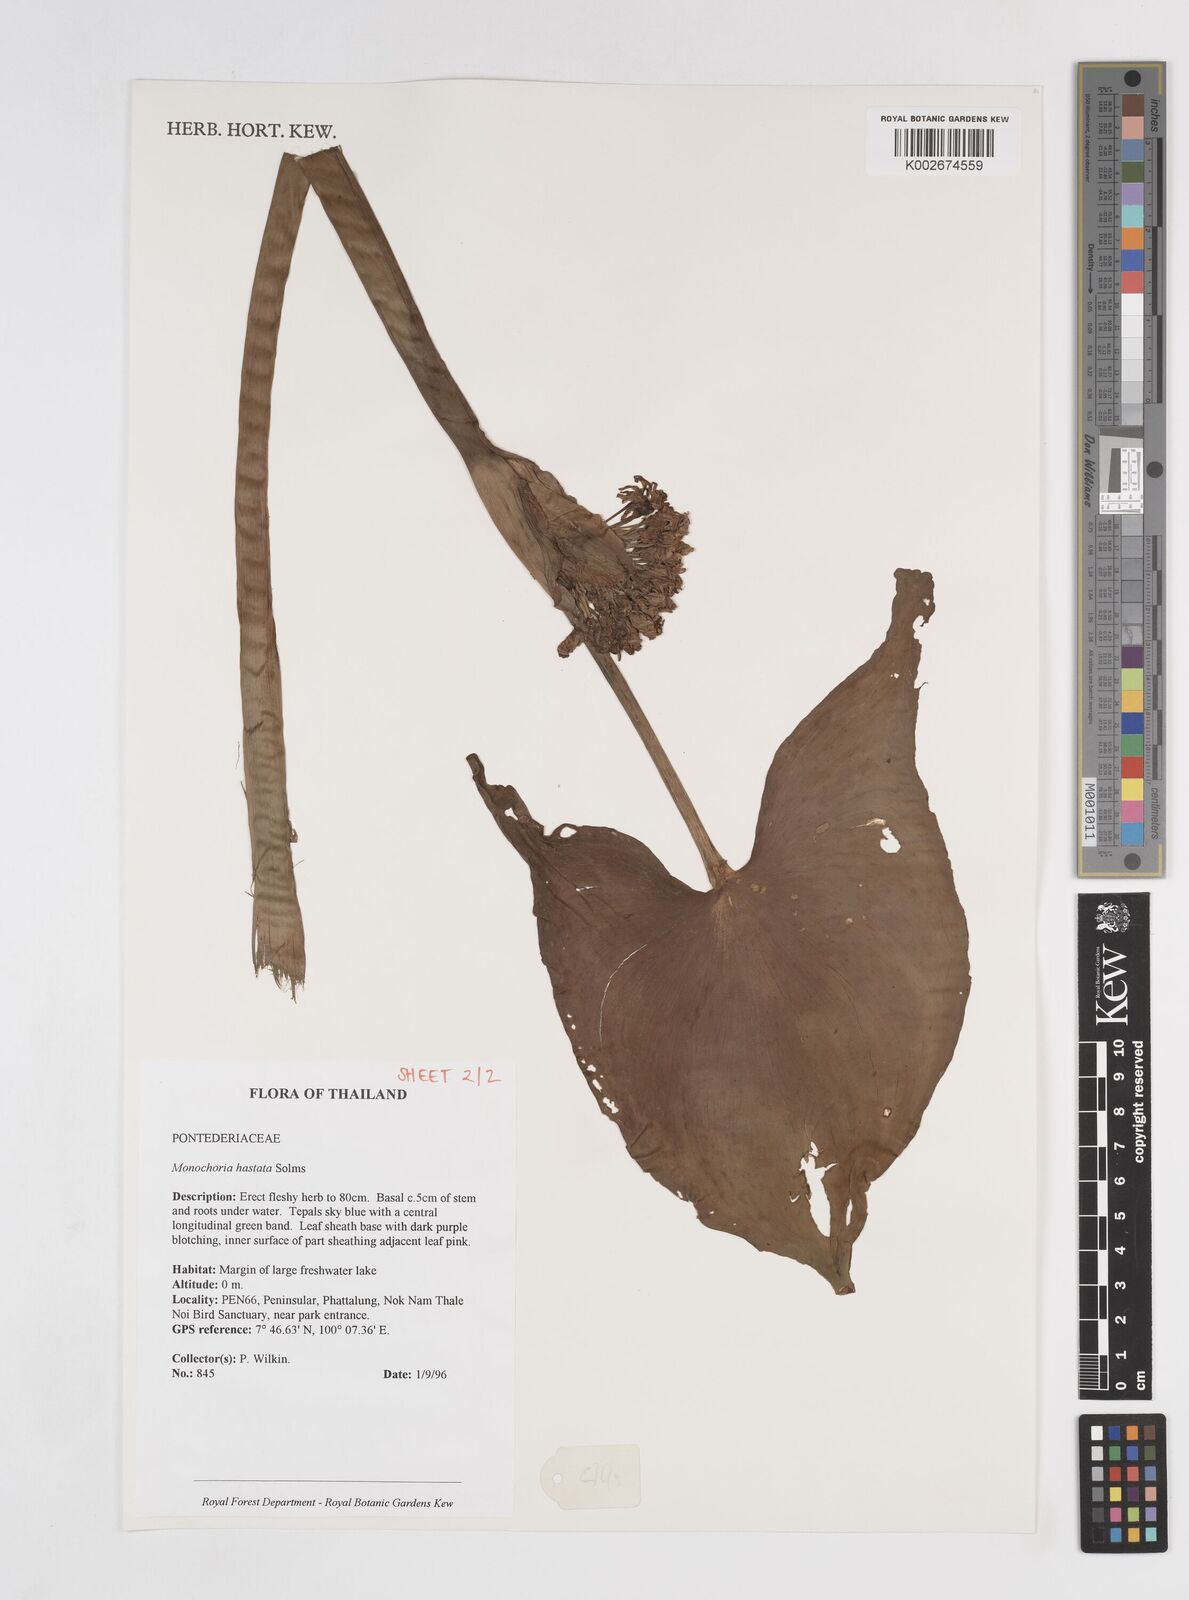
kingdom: Plantae
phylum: Tracheophyta
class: Liliopsida
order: Commelinales
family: Pontederiaceae
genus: Pontederia
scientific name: Pontederia hastata
